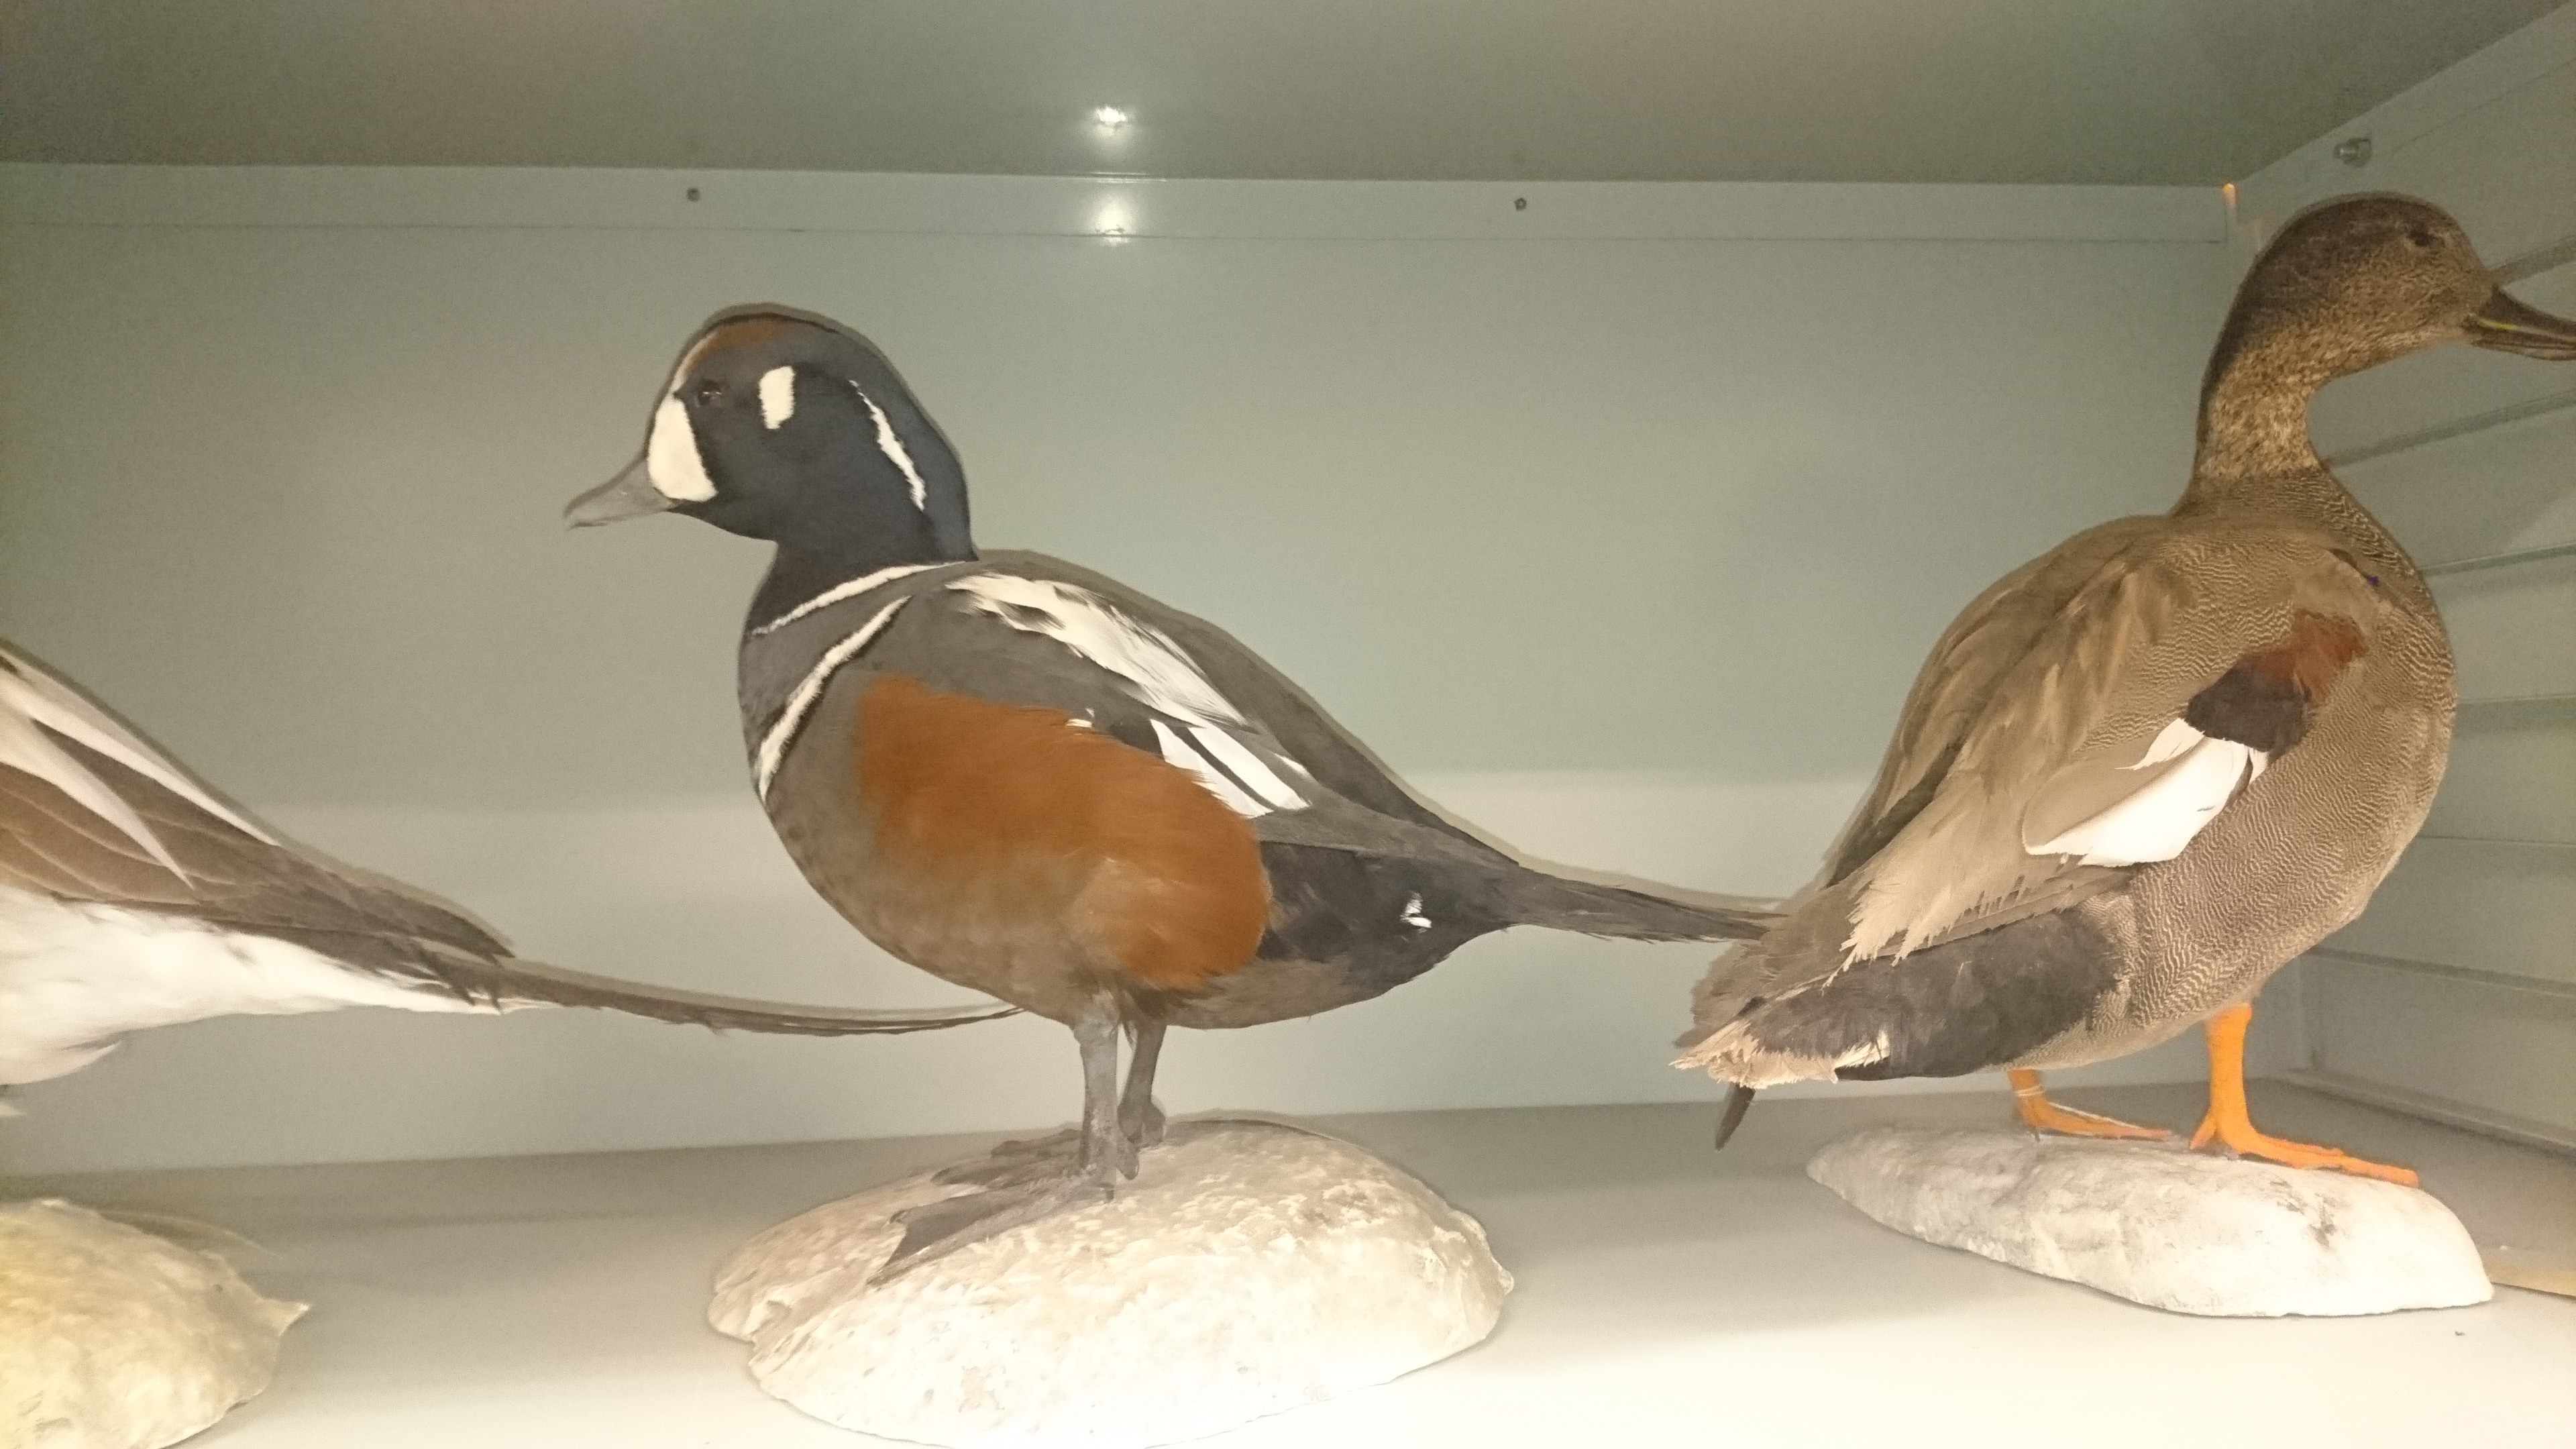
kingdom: Animalia
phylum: Chordata
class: Aves
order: Anseriformes
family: Anatidae
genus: Histrionicus
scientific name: Histrionicus histrionicus
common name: Harlequin duck
